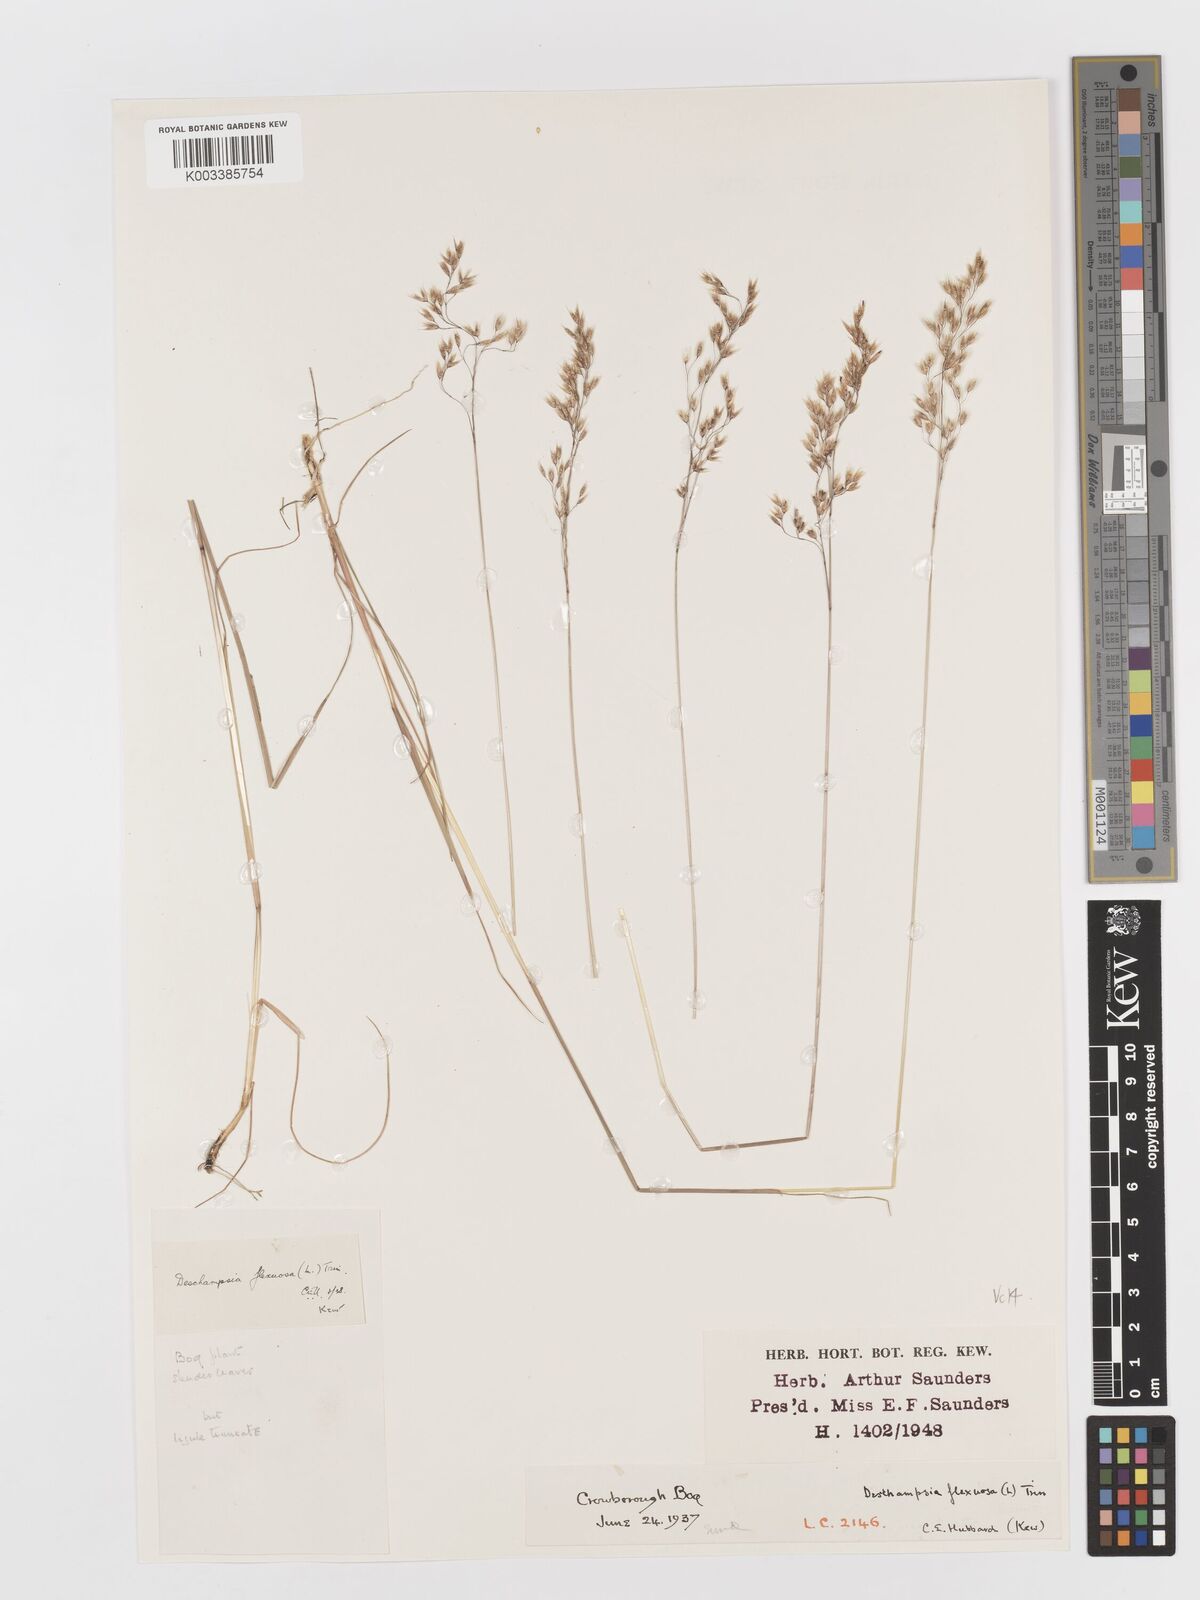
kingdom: Plantae
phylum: Tracheophyta
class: Liliopsida
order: Poales
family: Poaceae
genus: Avenella
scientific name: Avenella flexuosa
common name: Wavy hairgrass
